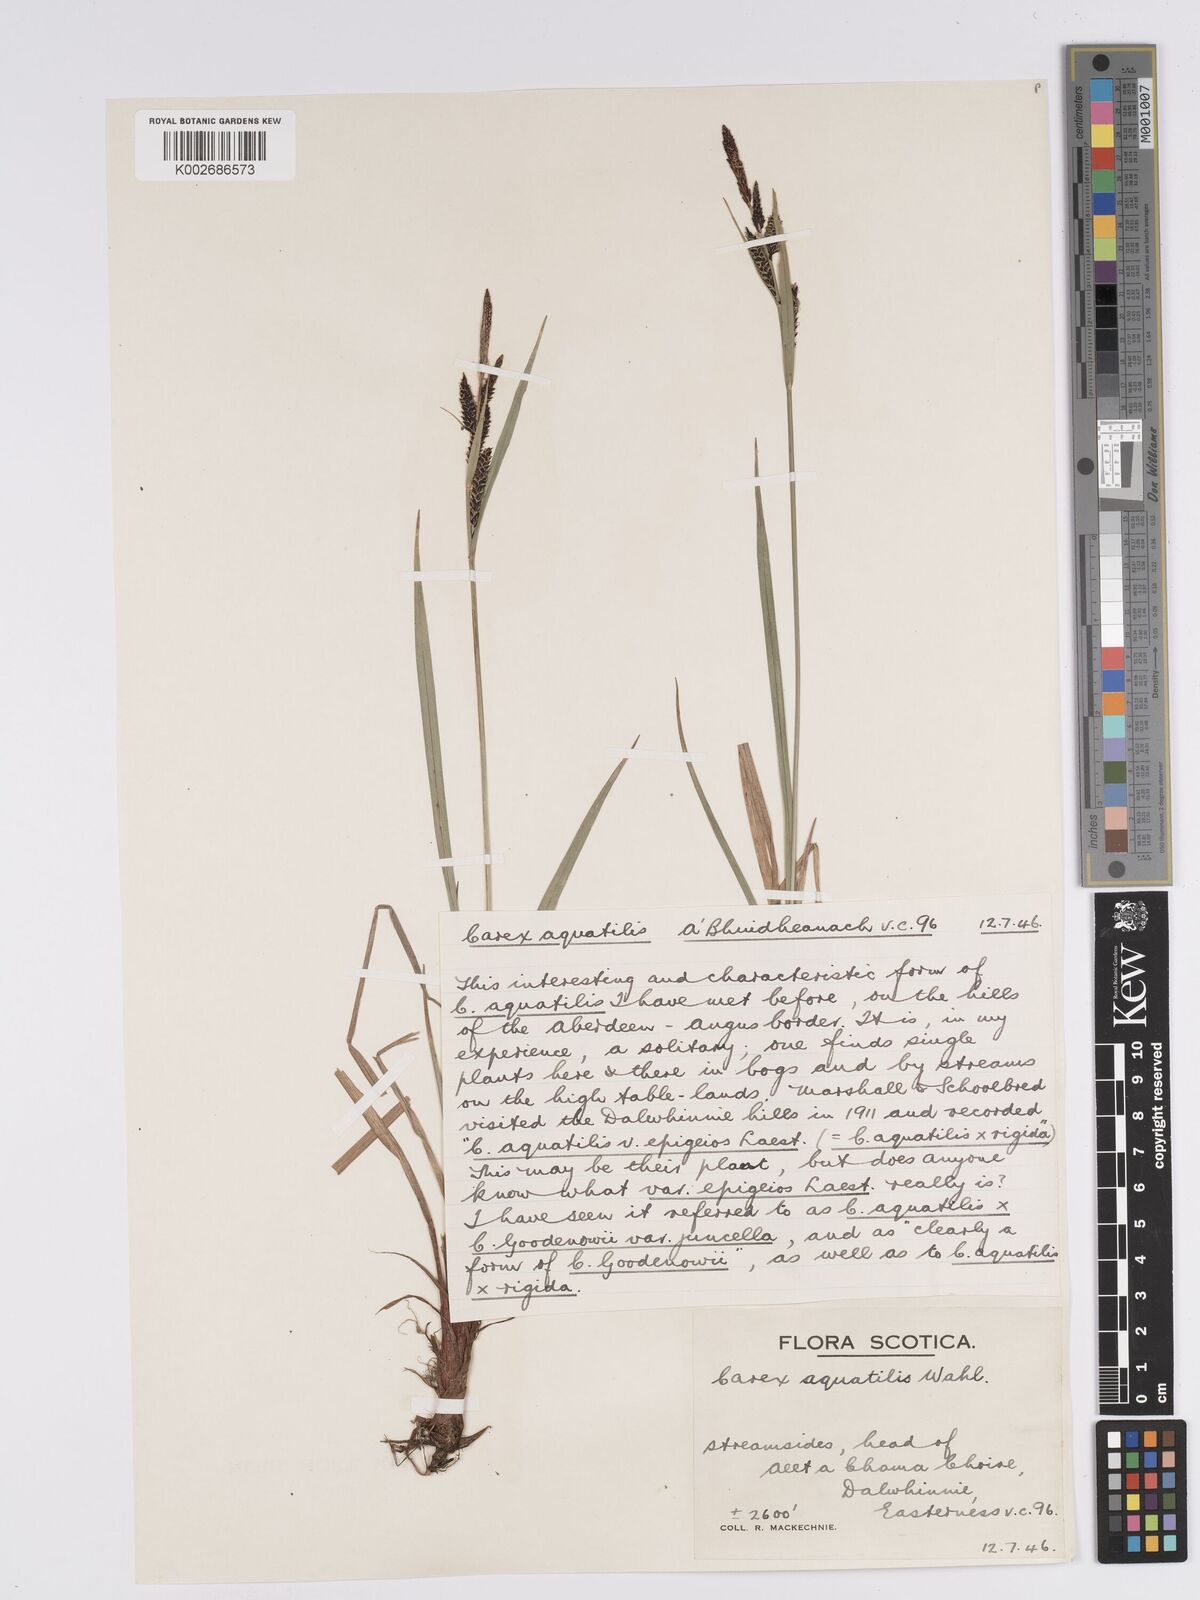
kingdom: Plantae
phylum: Tracheophyta
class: Liliopsida
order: Poales
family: Cyperaceae
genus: Carex
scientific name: Carex aquatilis
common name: Water sedge
